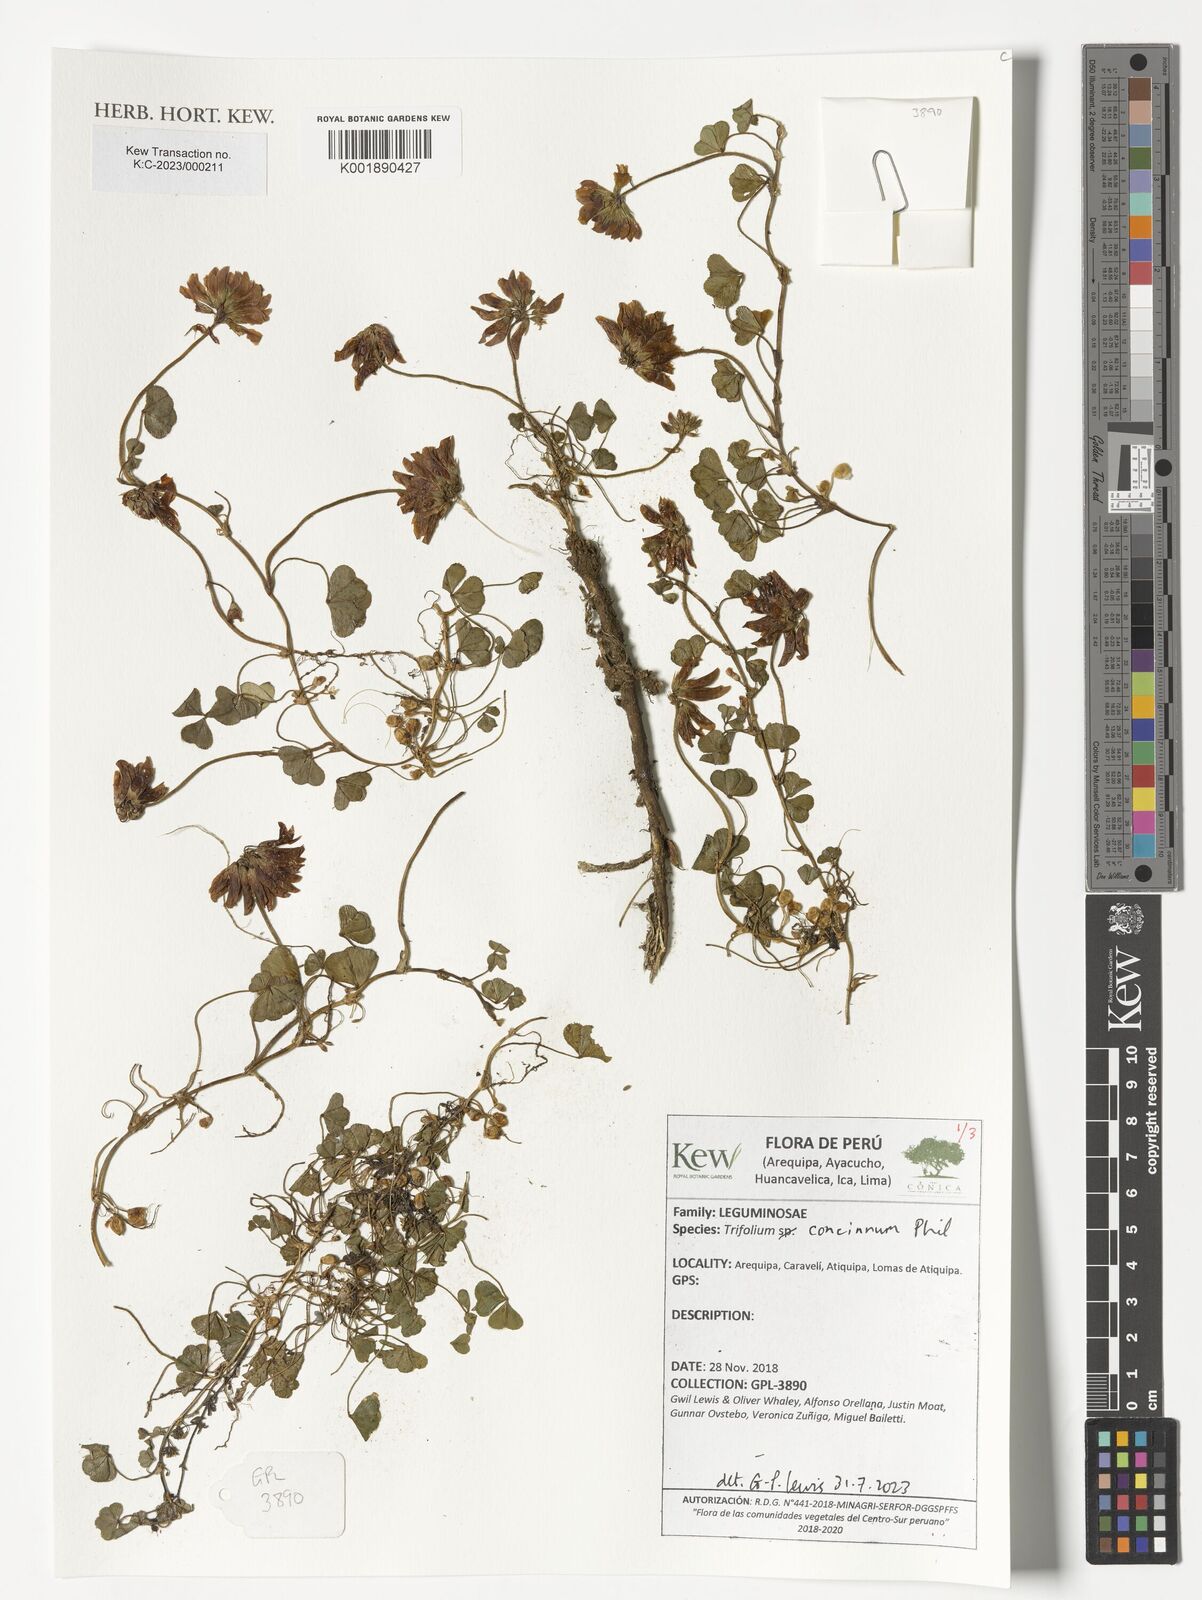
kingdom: Plantae
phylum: Tracheophyta
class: Magnoliopsida
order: Fabales
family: Fabaceae
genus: Trifolium
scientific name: Trifolium polymorphum
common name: Peanut clover
